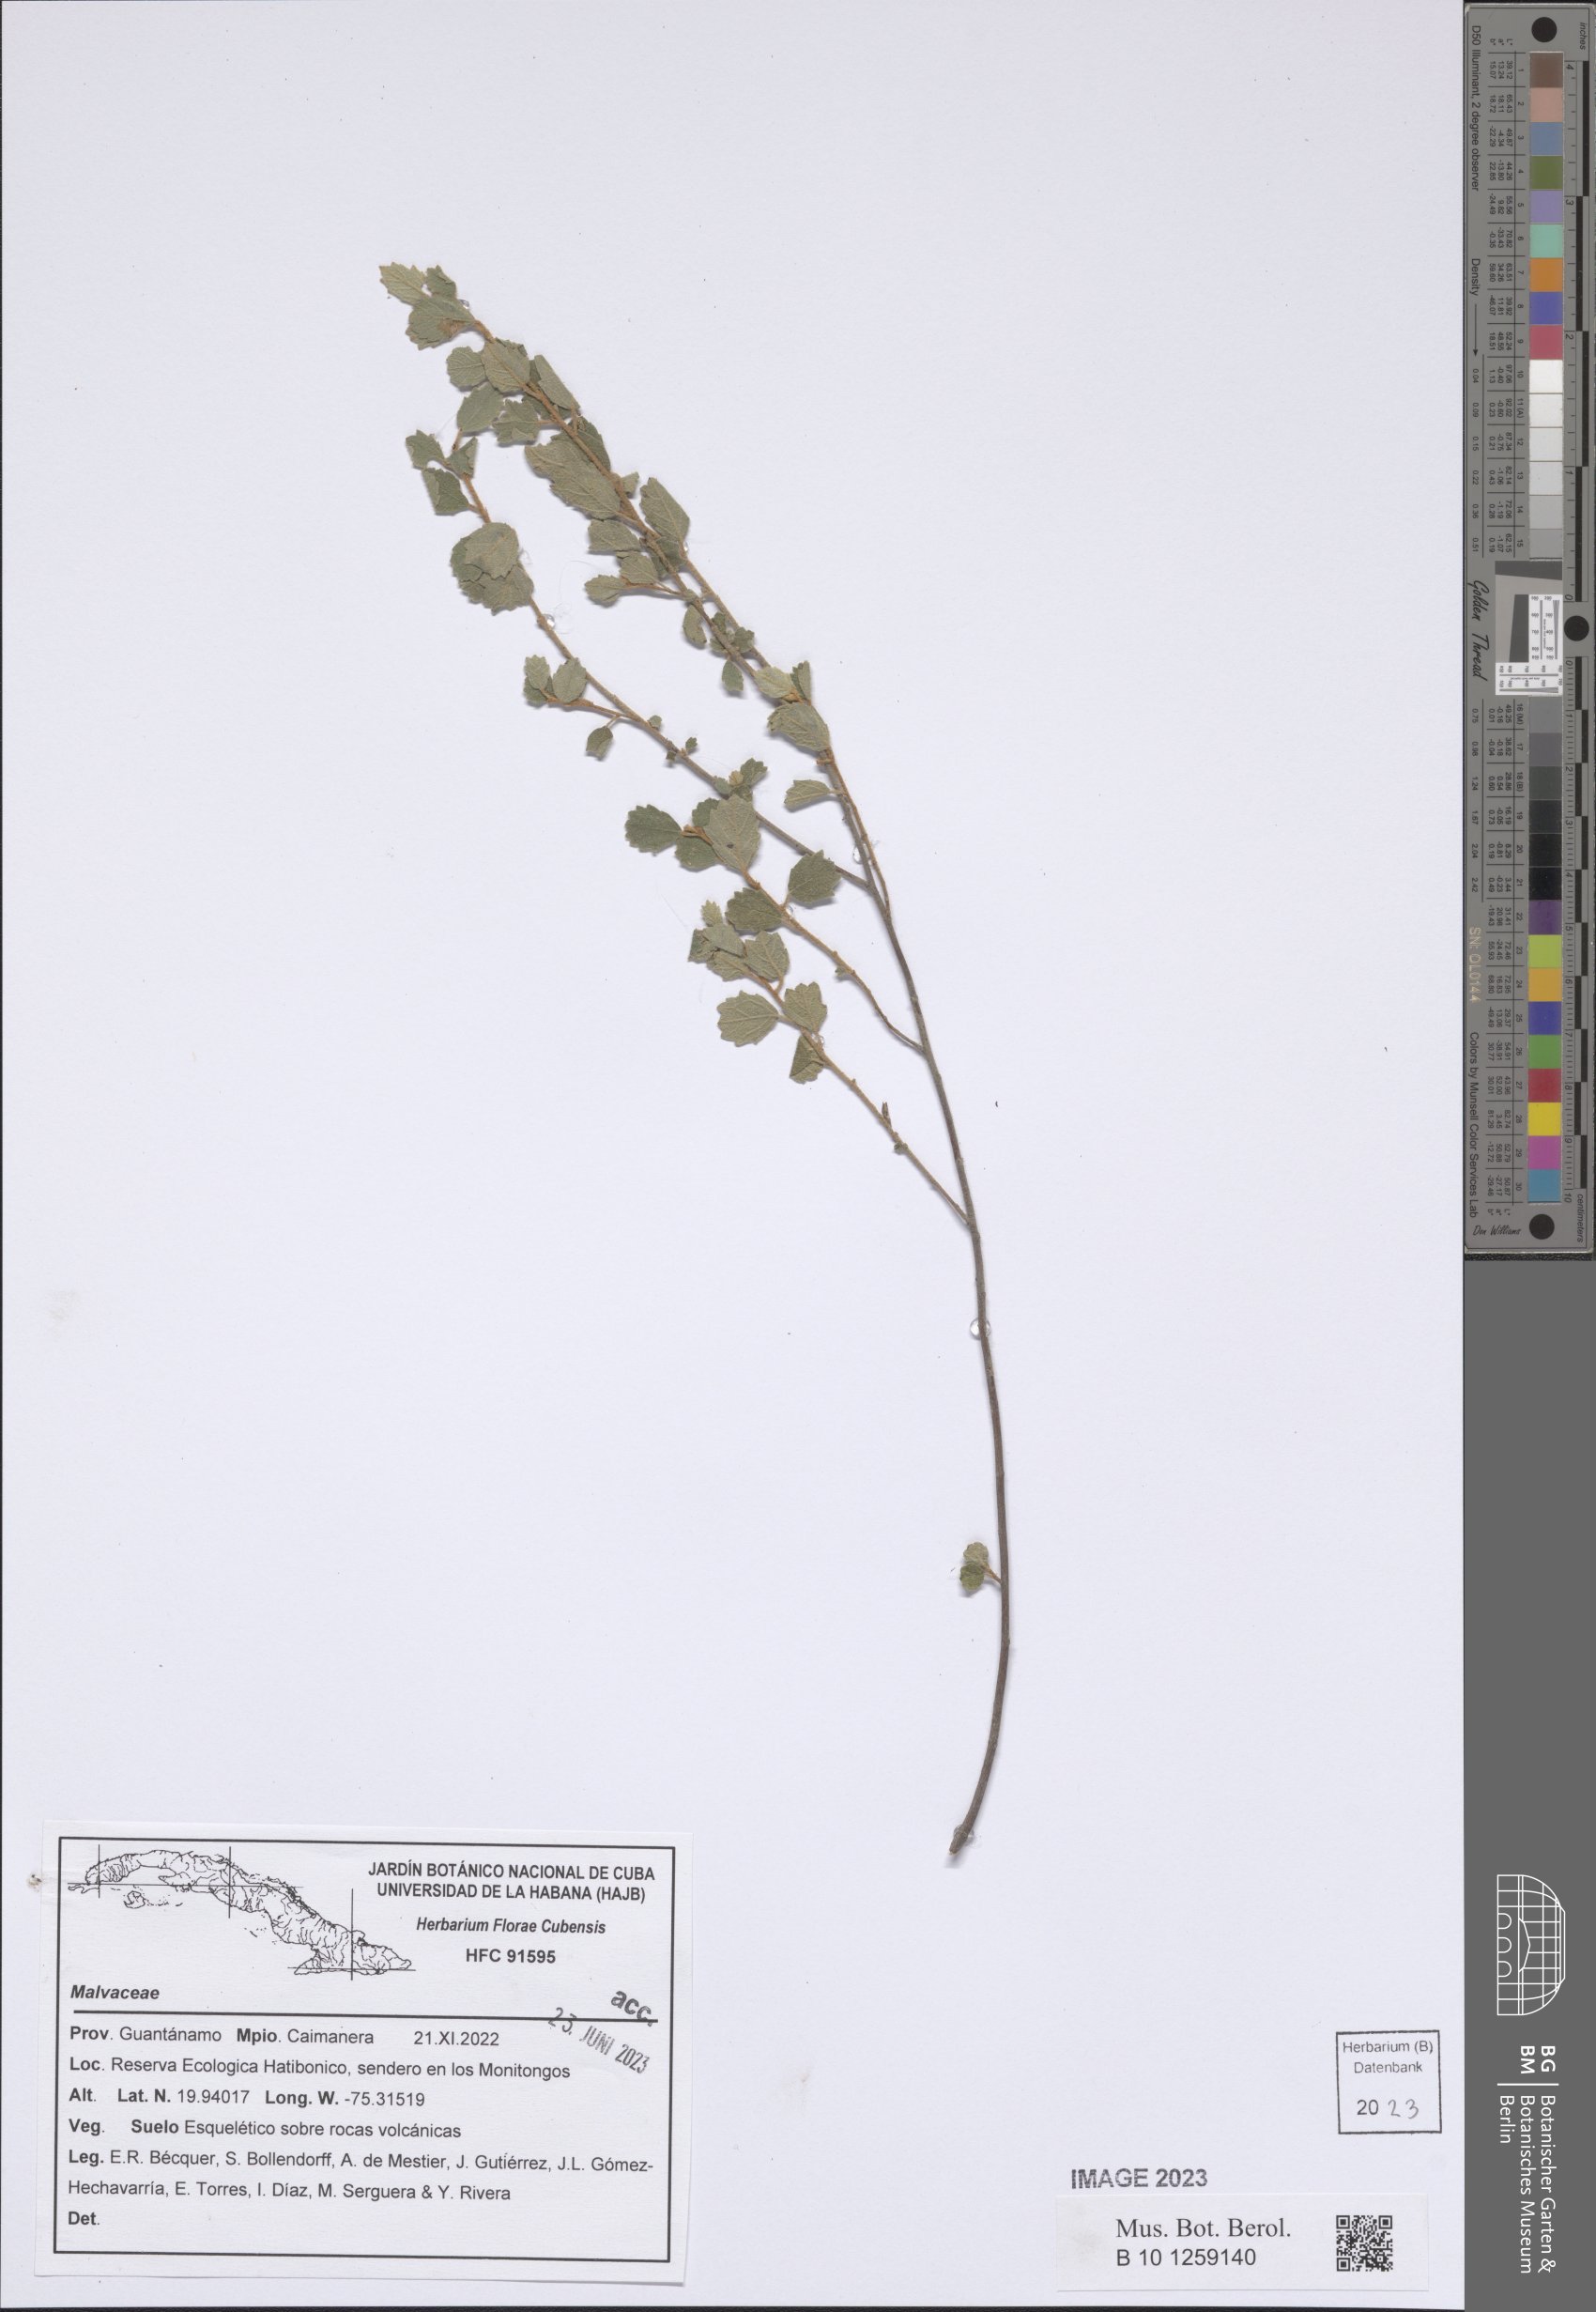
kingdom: Plantae
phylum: Tracheophyta
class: Magnoliopsida
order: Malvales
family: Malvaceae
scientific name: Malvaceae
